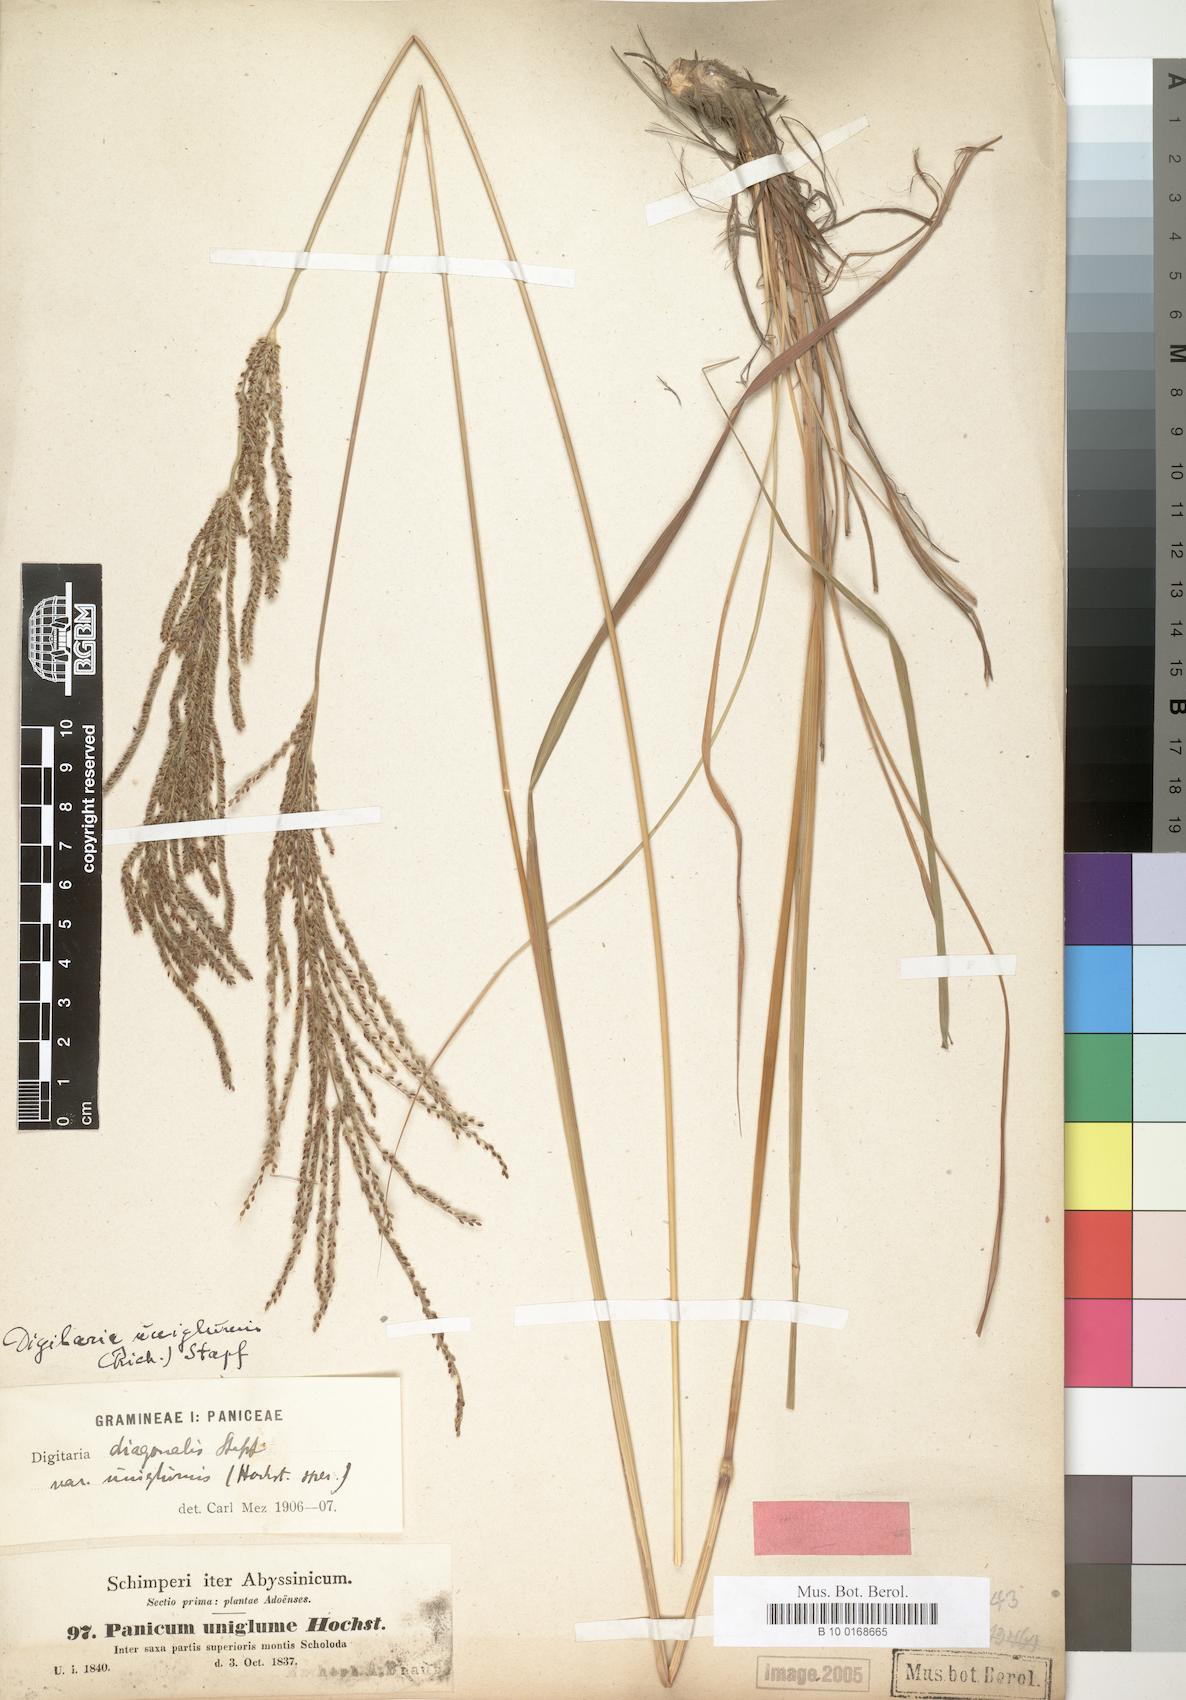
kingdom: Plantae
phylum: Tracheophyta
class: Liliopsida
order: Poales
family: Poaceae
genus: Panicum
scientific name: Panicum uniglume
